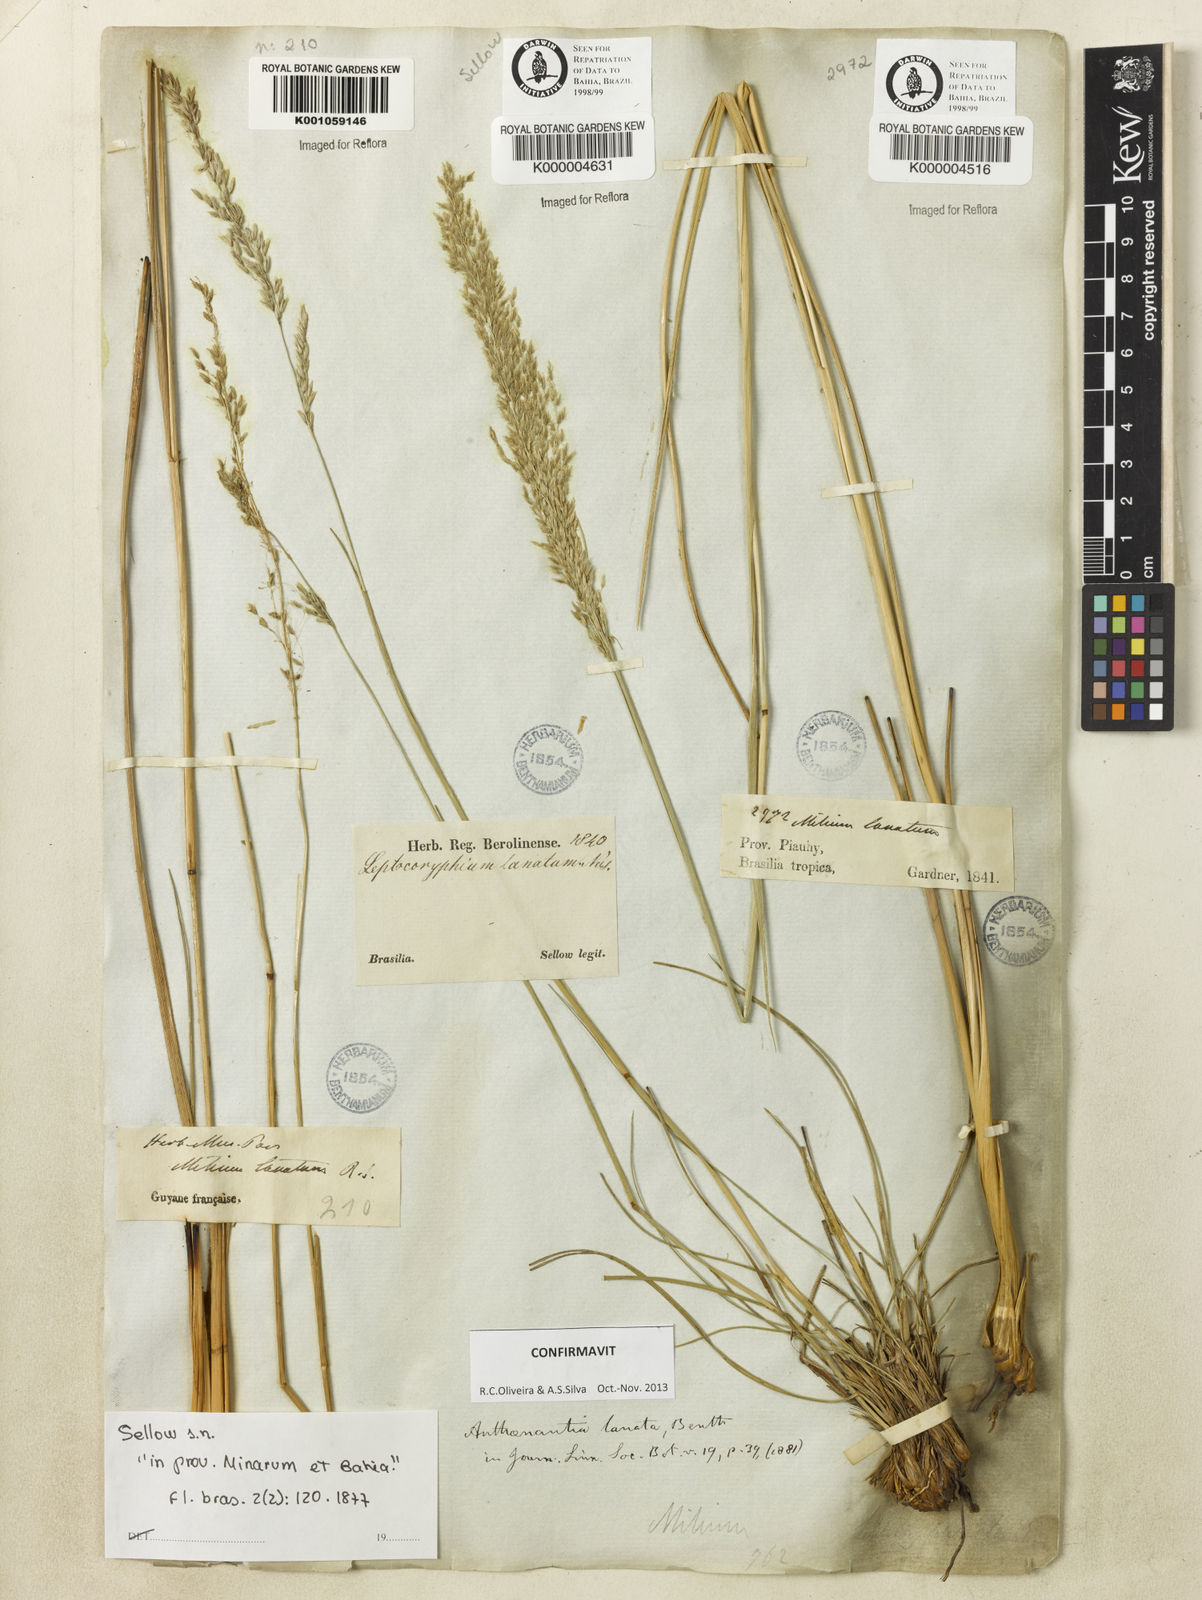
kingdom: Plantae
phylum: Tracheophyta
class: Liliopsida
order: Poales
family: Poaceae
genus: Anthenantia
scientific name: Anthenantia lanata
